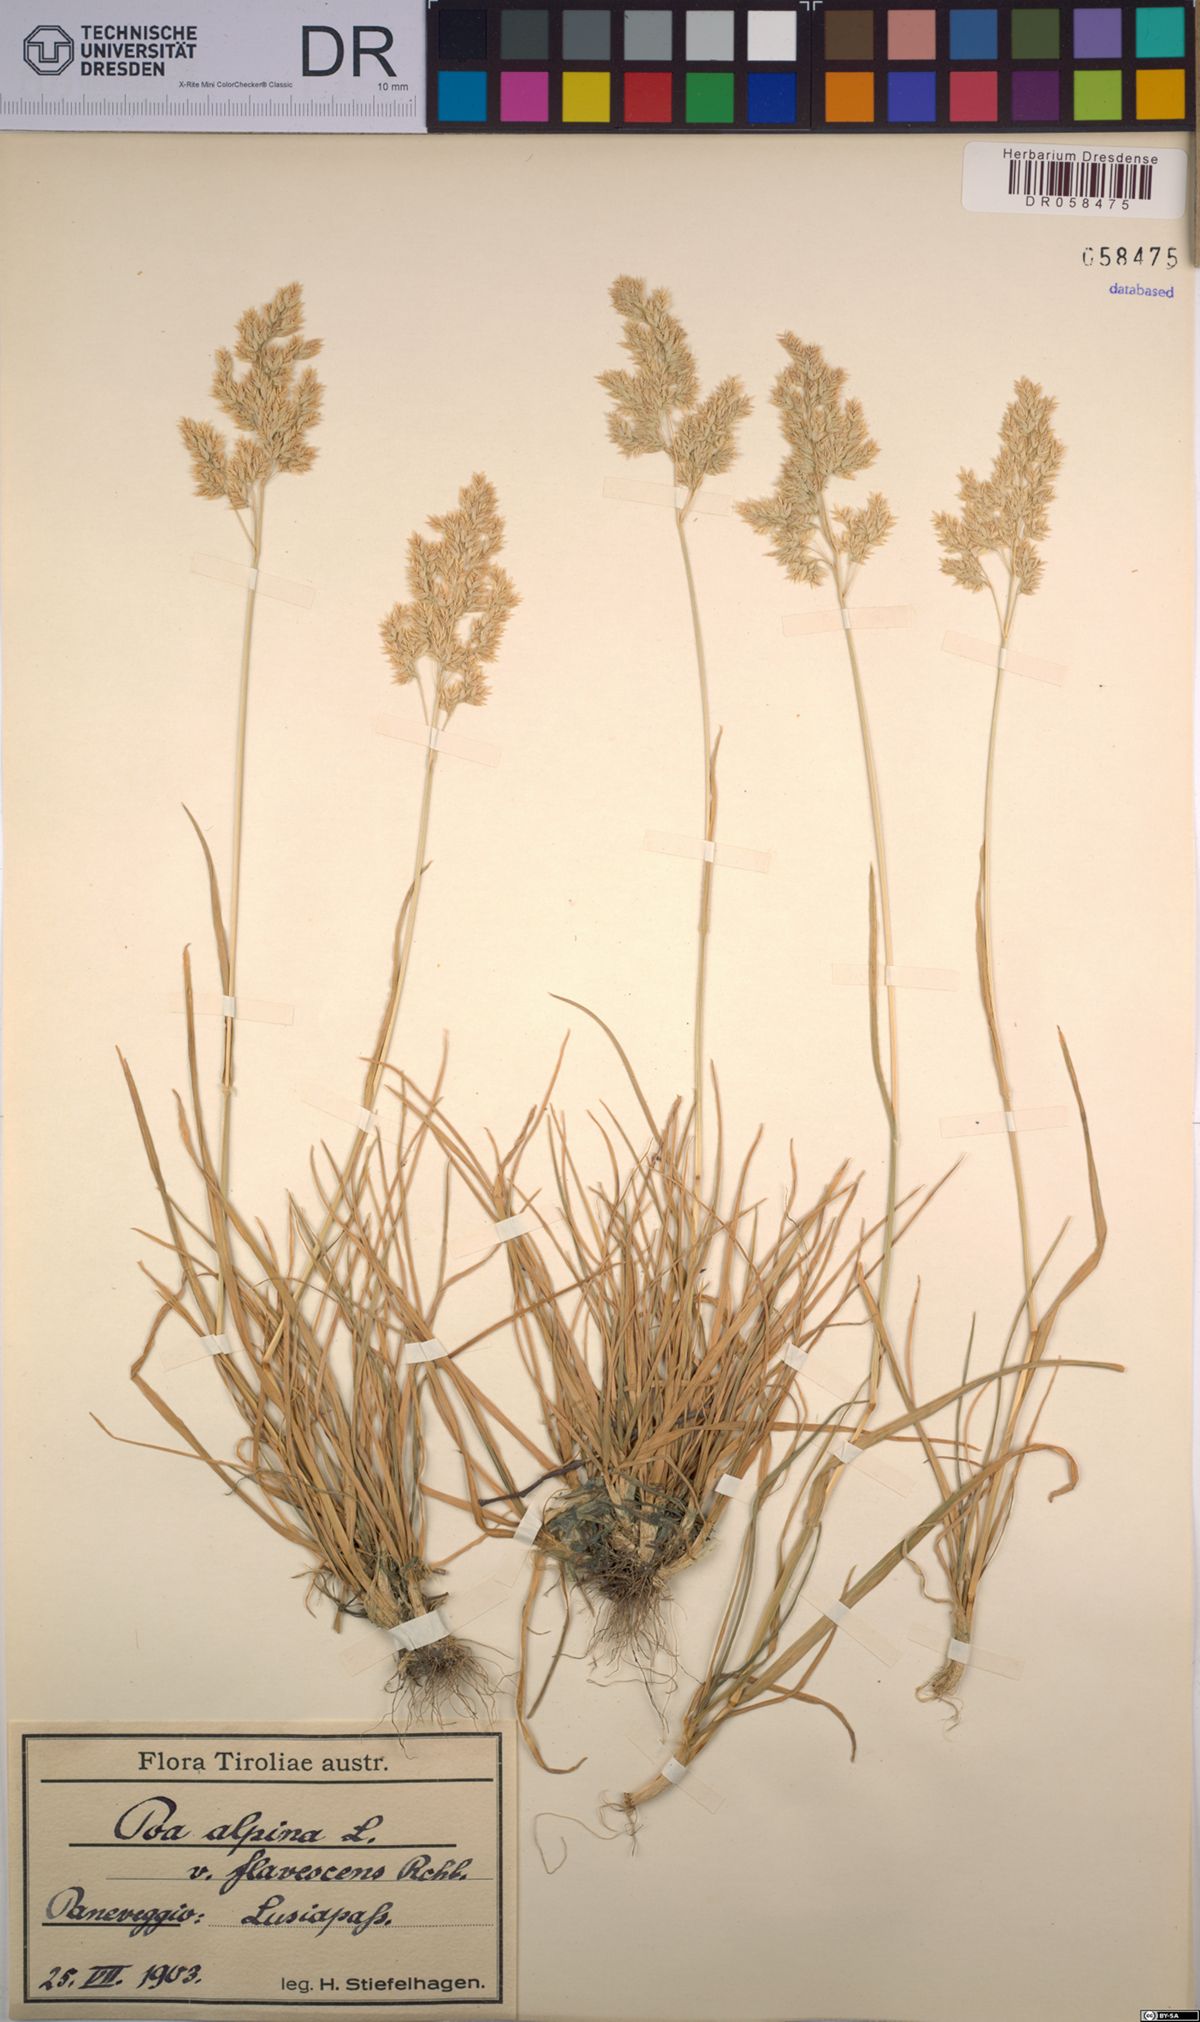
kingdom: Plantae
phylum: Tracheophyta
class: Liliopsida
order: Poales
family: Poaceae
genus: Poa
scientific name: Poa alpina
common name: Alpine bluegrass
